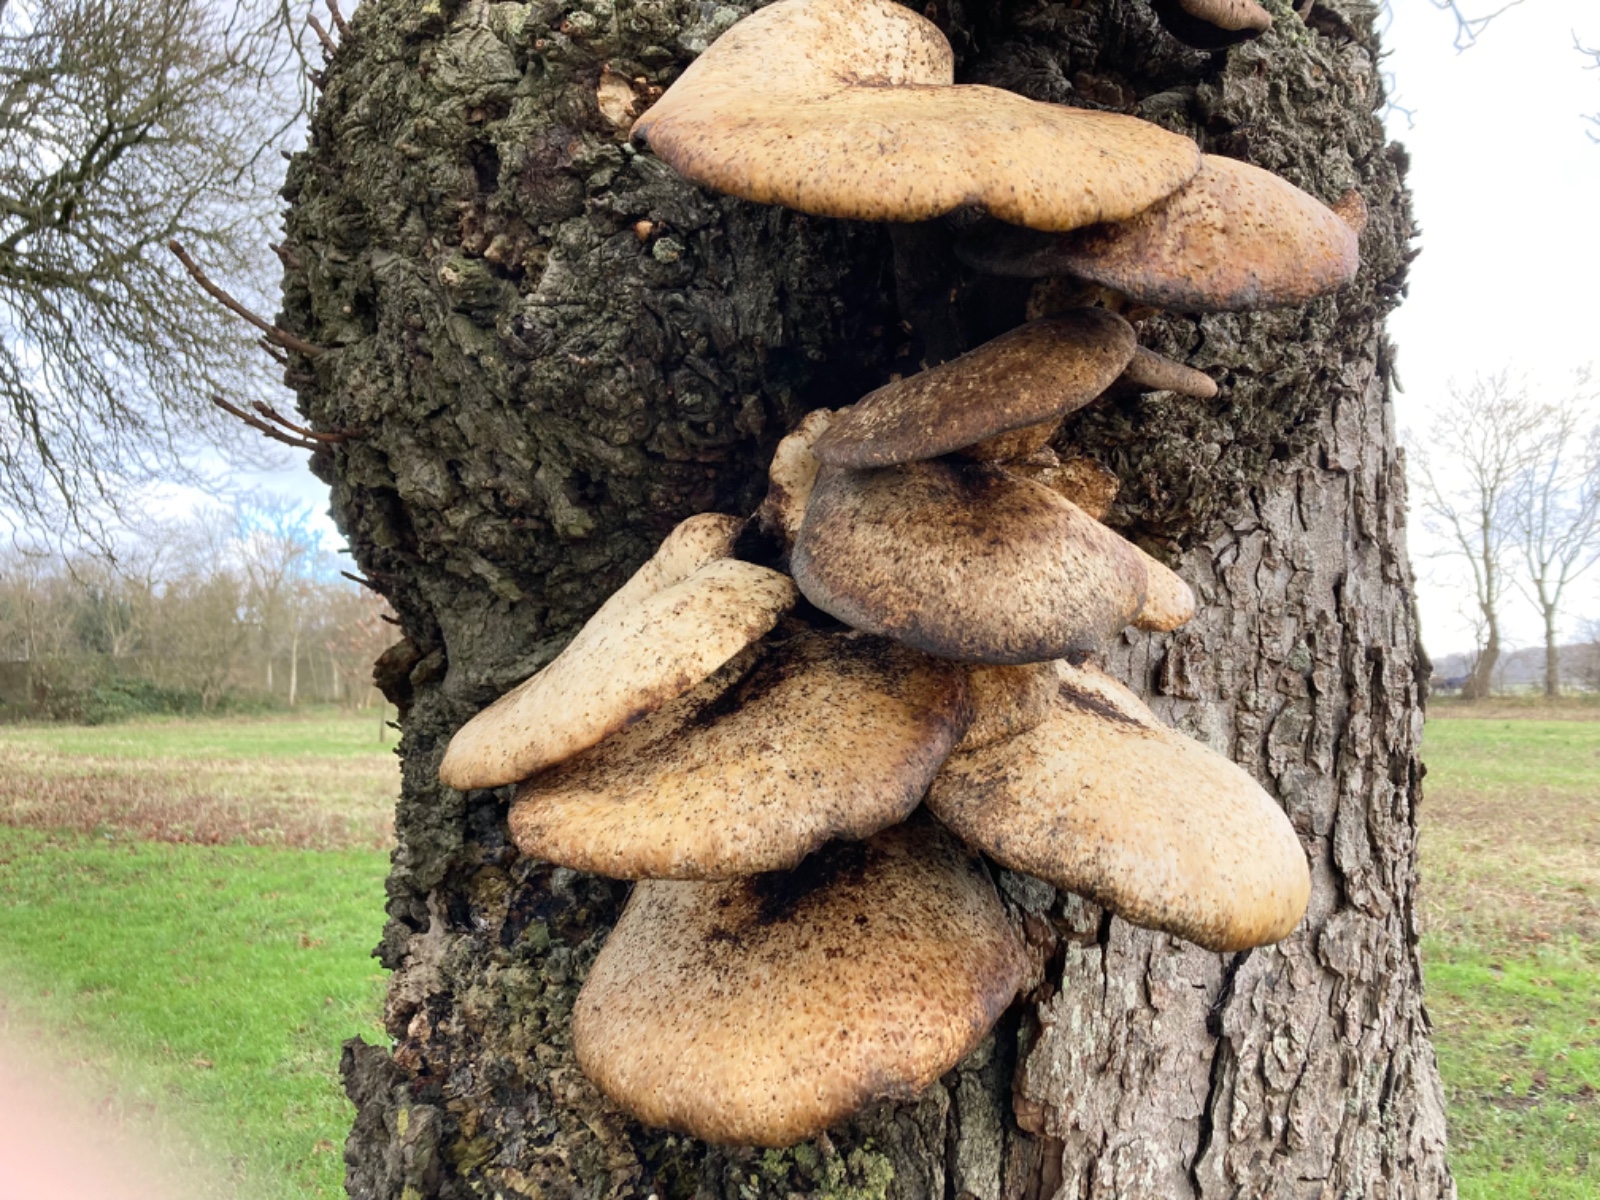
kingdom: Fungi
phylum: Basidiomycota
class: Agaricomycetes
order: Polyporales
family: Polyporaceae
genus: Cerioporus
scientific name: Cerioporus squamosus
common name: skællet stilkporesvamp
